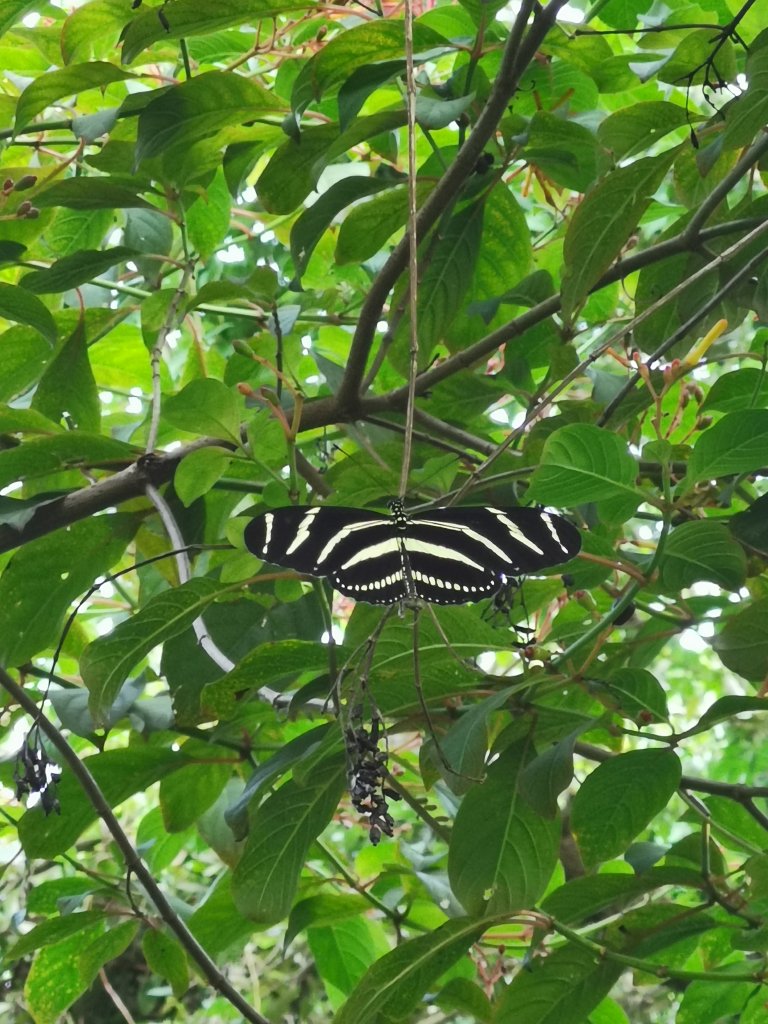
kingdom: Animalia
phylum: Arthropoda
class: Insecta
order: Lepidoptera
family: Nymphalidae
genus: Heliconius
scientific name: Heliconius charithonia
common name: Zebra Longwing
